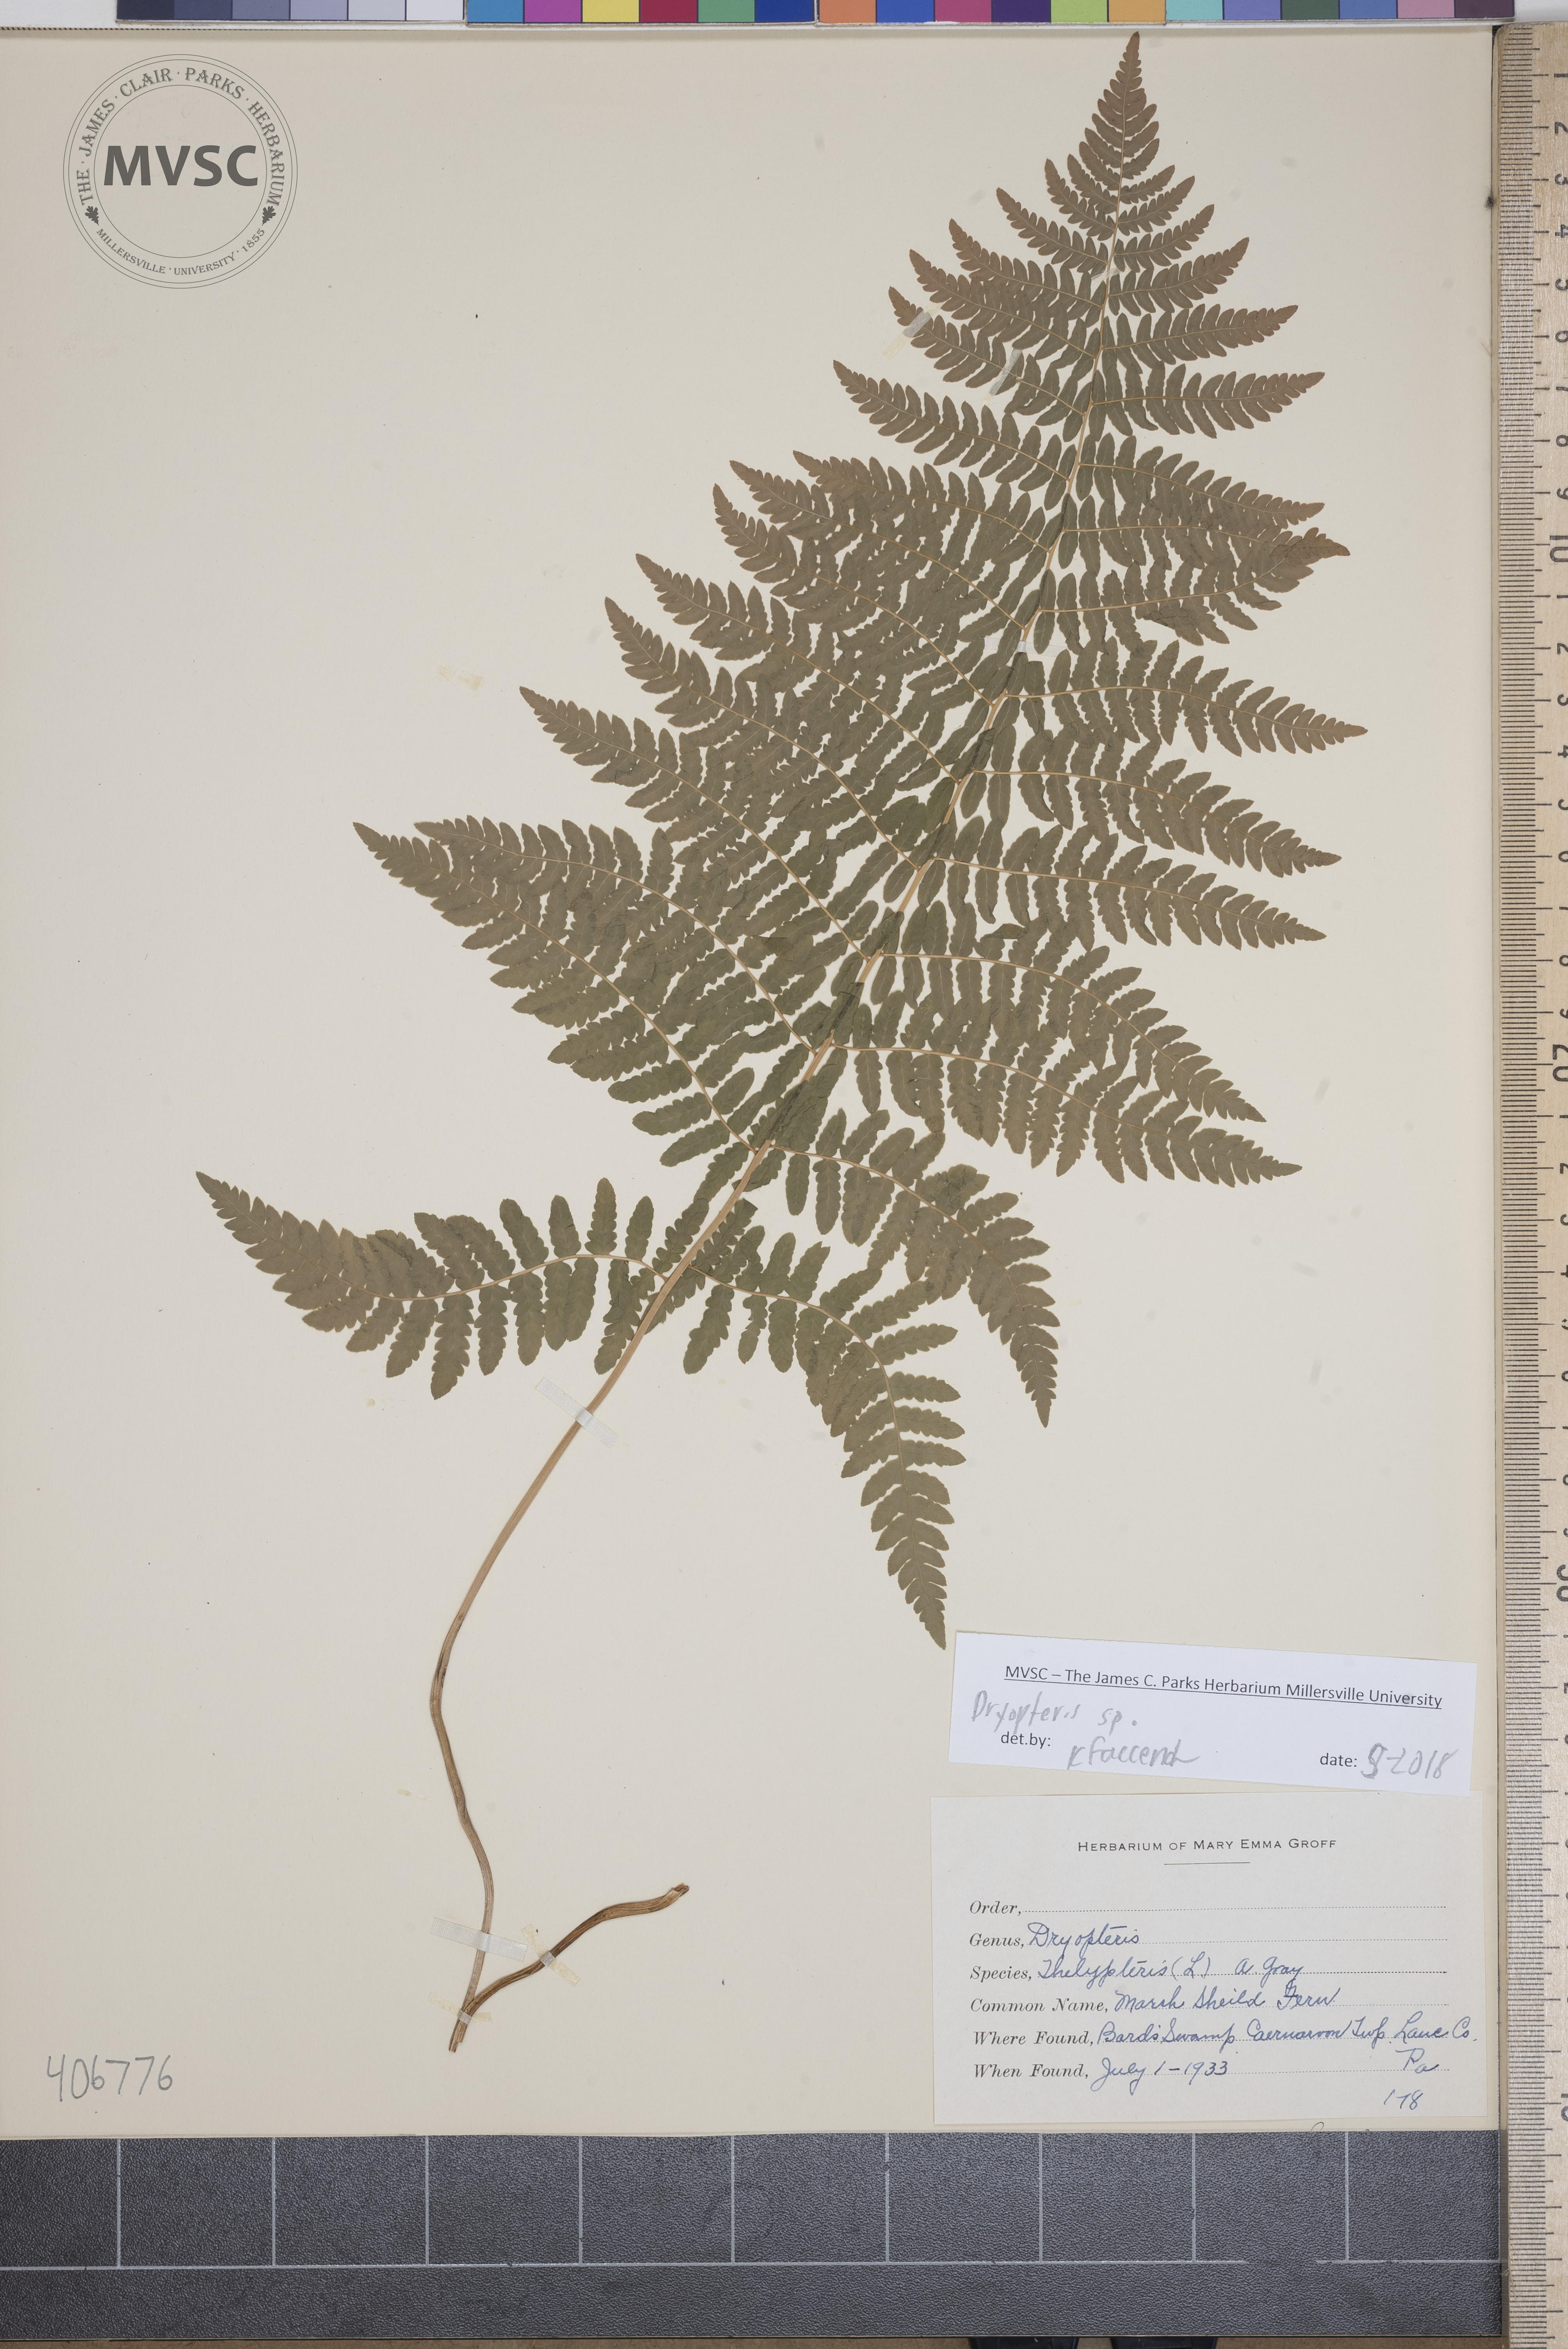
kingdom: Plantae
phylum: Tracheophyta
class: Polypodiopsida
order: Polypodiales
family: Dryopteridaceae
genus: Dryopteris
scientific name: Dryopteris
